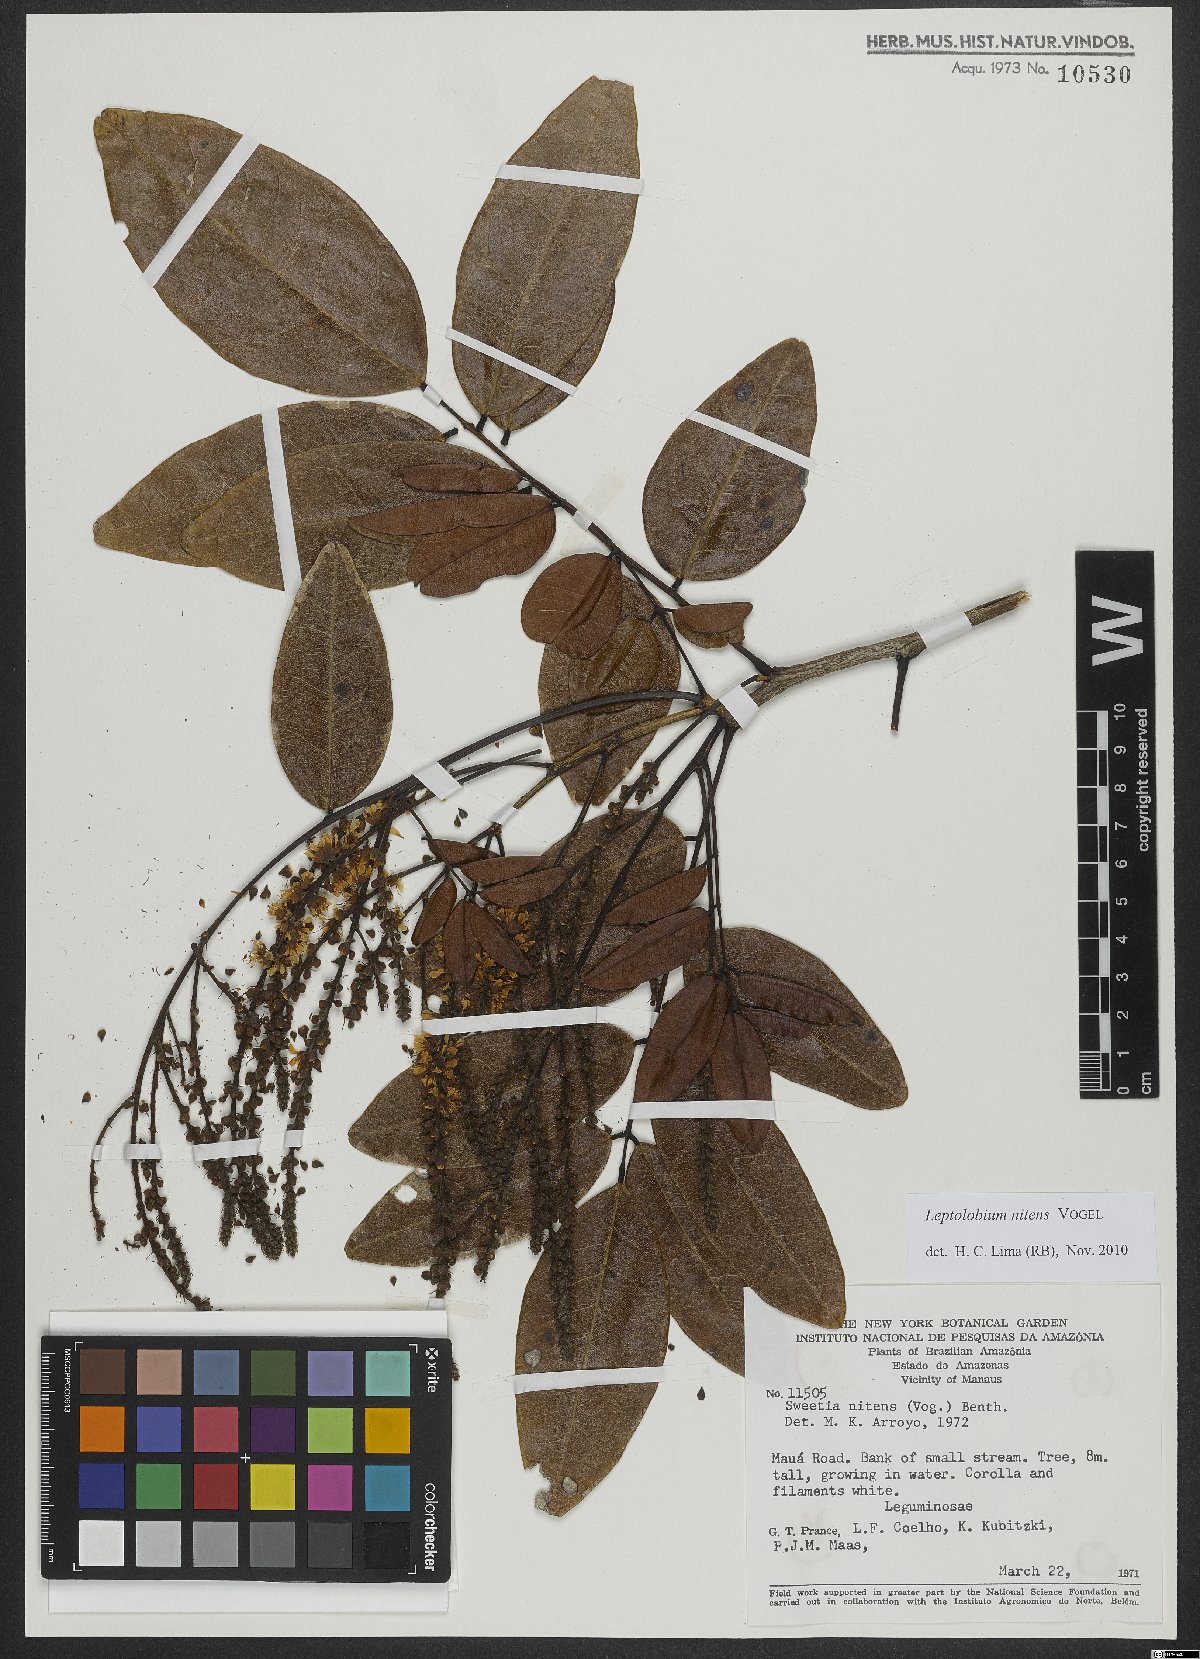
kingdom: Plantae
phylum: Tracheophyta
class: Magnoliopsida
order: Fabales
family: Fabaceae
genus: Leptolobium
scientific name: Leptolobium nitens
